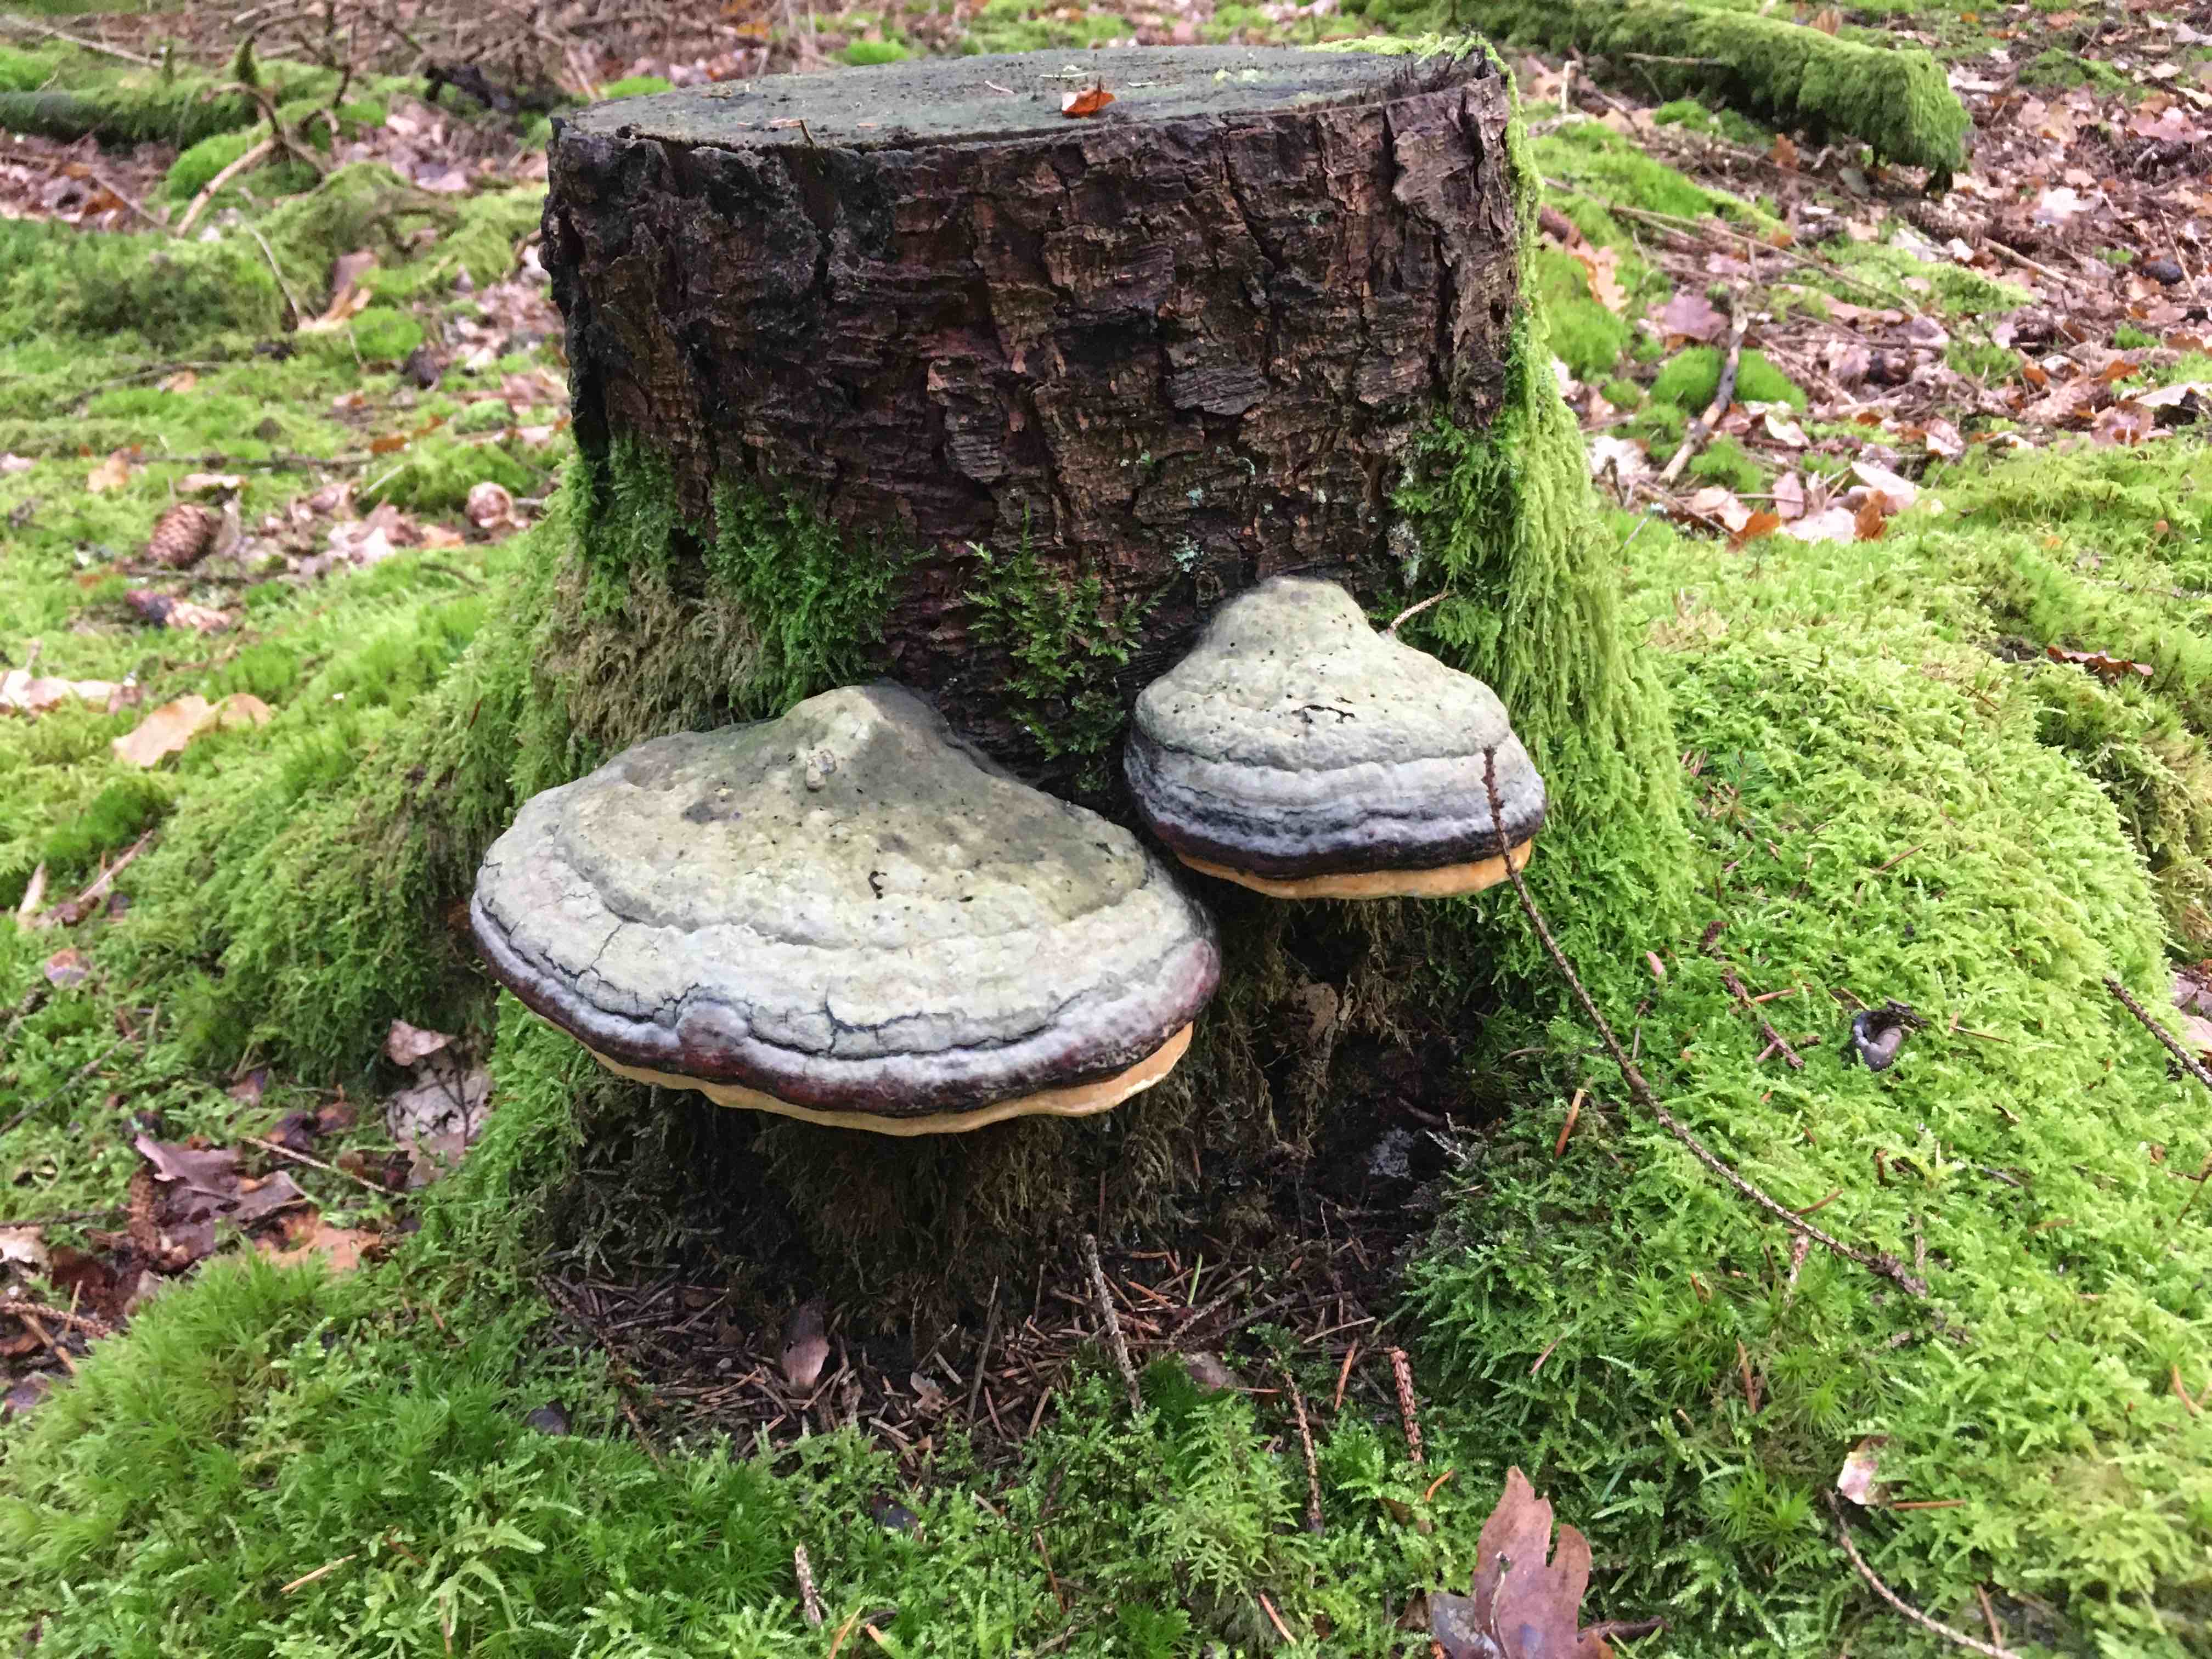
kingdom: Fungi
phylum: Basidiomycota
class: Agaricomycetes
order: Polyporales
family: Fomitopsidaceae
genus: Fomitopsis
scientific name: Fomitopsis pinicola
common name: randbæltet hovporesvamp
